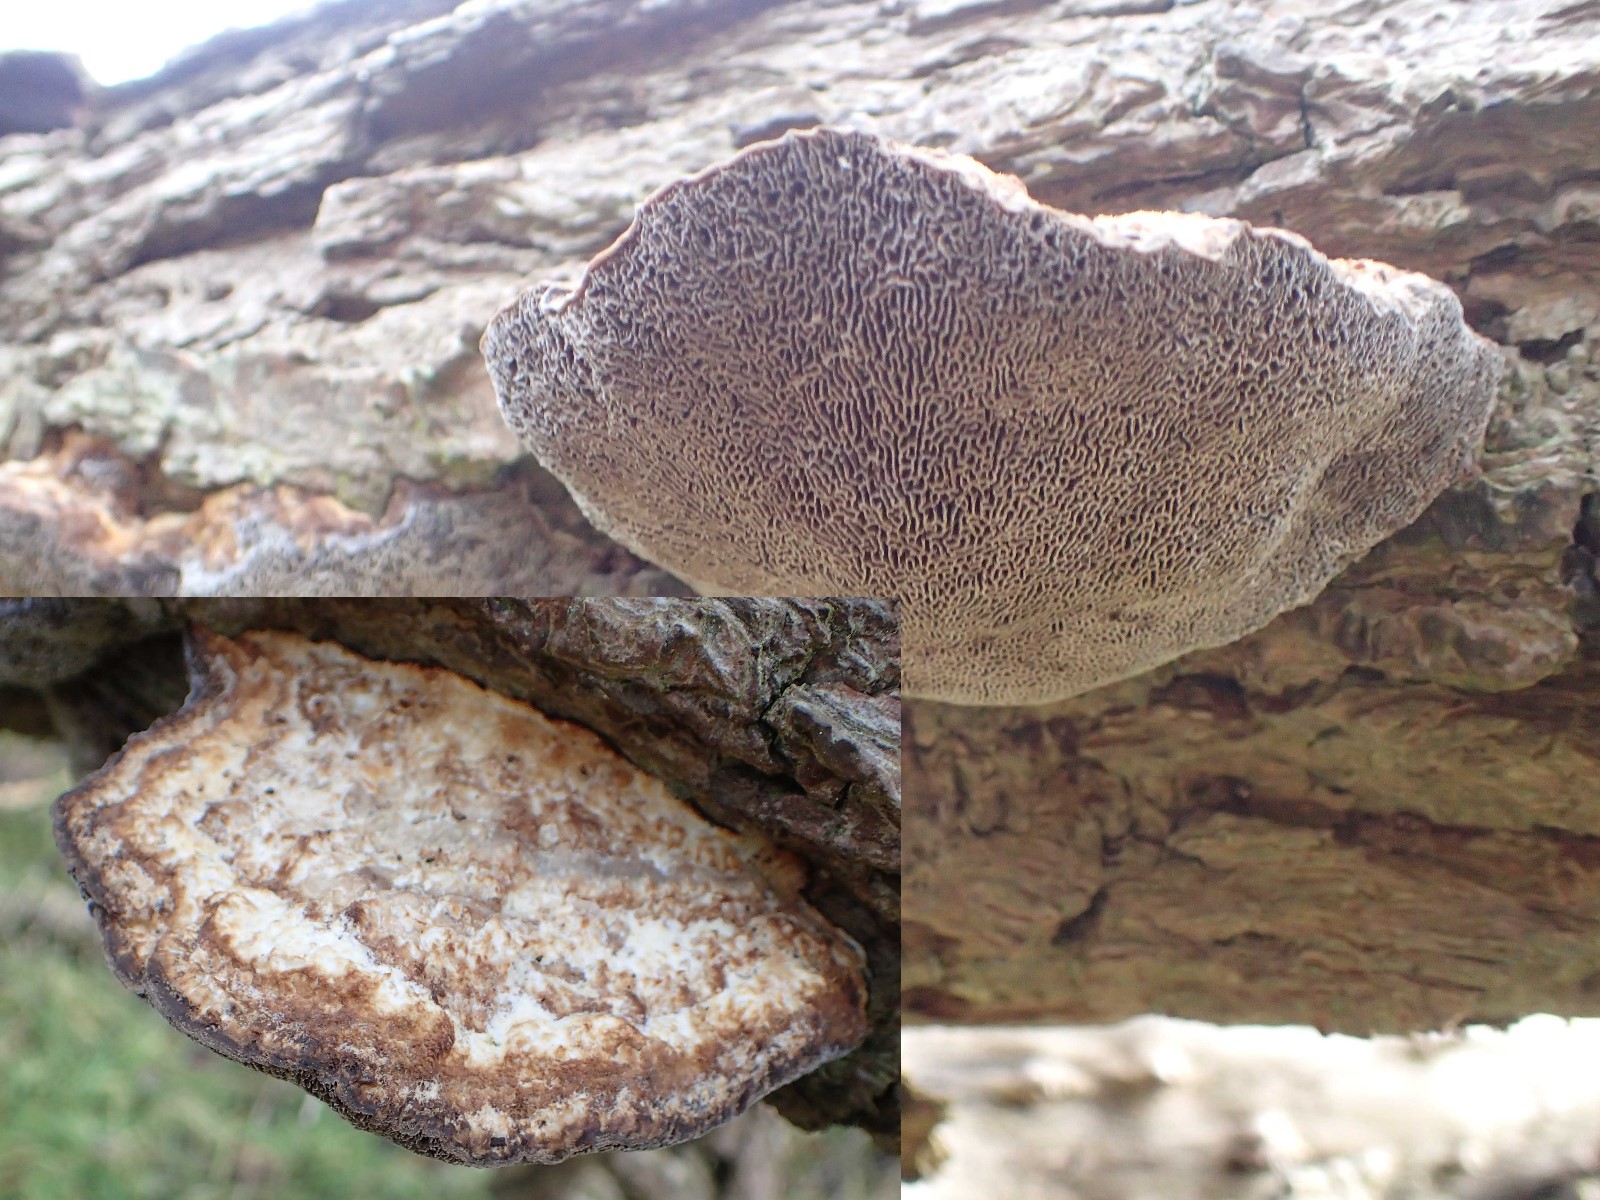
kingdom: Fungi
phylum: Basidiomycota
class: Agaricomycetes
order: Polyporales
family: Polyporaceae
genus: Daedaleopsis
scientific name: Daedaleopsis confragosa
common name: rødmende læderporesvamp
